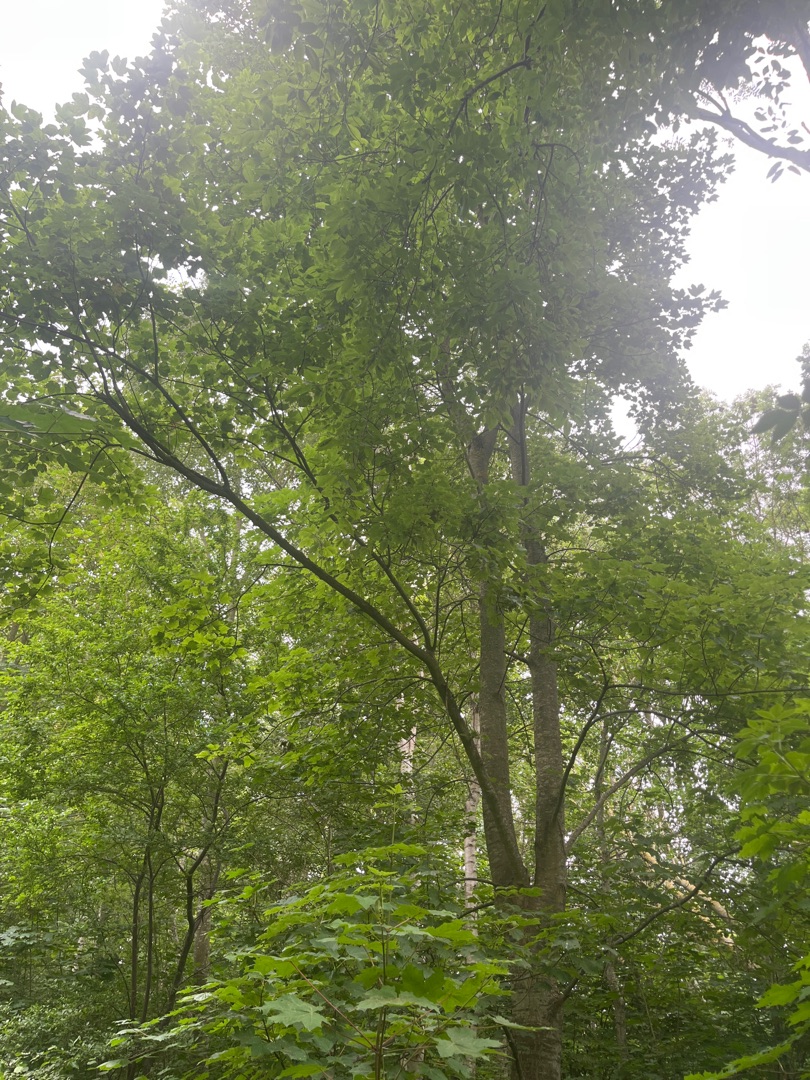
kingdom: Plantae
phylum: Tracheophyta
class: Magnoliopsida
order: Sapindales
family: Sapindaceae
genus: Acer
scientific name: Acer pseudoplatanus
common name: Ahorn
